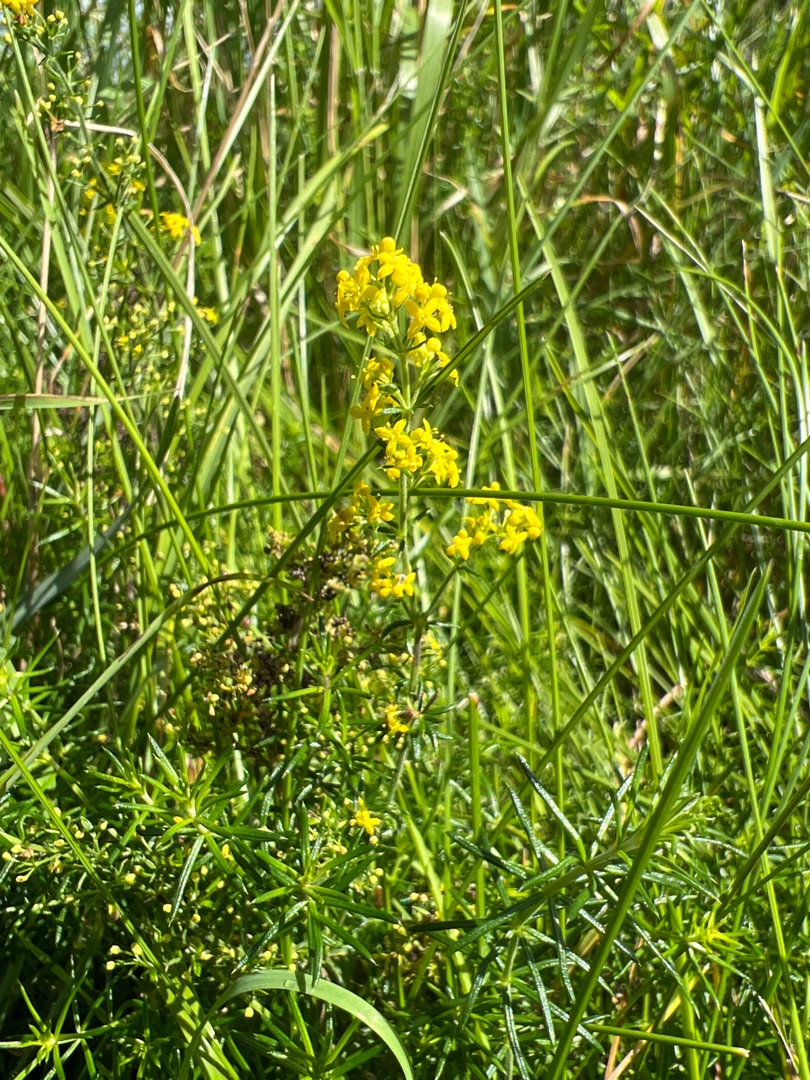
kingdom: Plantae
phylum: Tracheophyta
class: Magnoliopsida
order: Gentianales
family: Rubiaceae
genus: Galium
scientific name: Galium verum
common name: Gul snerre
